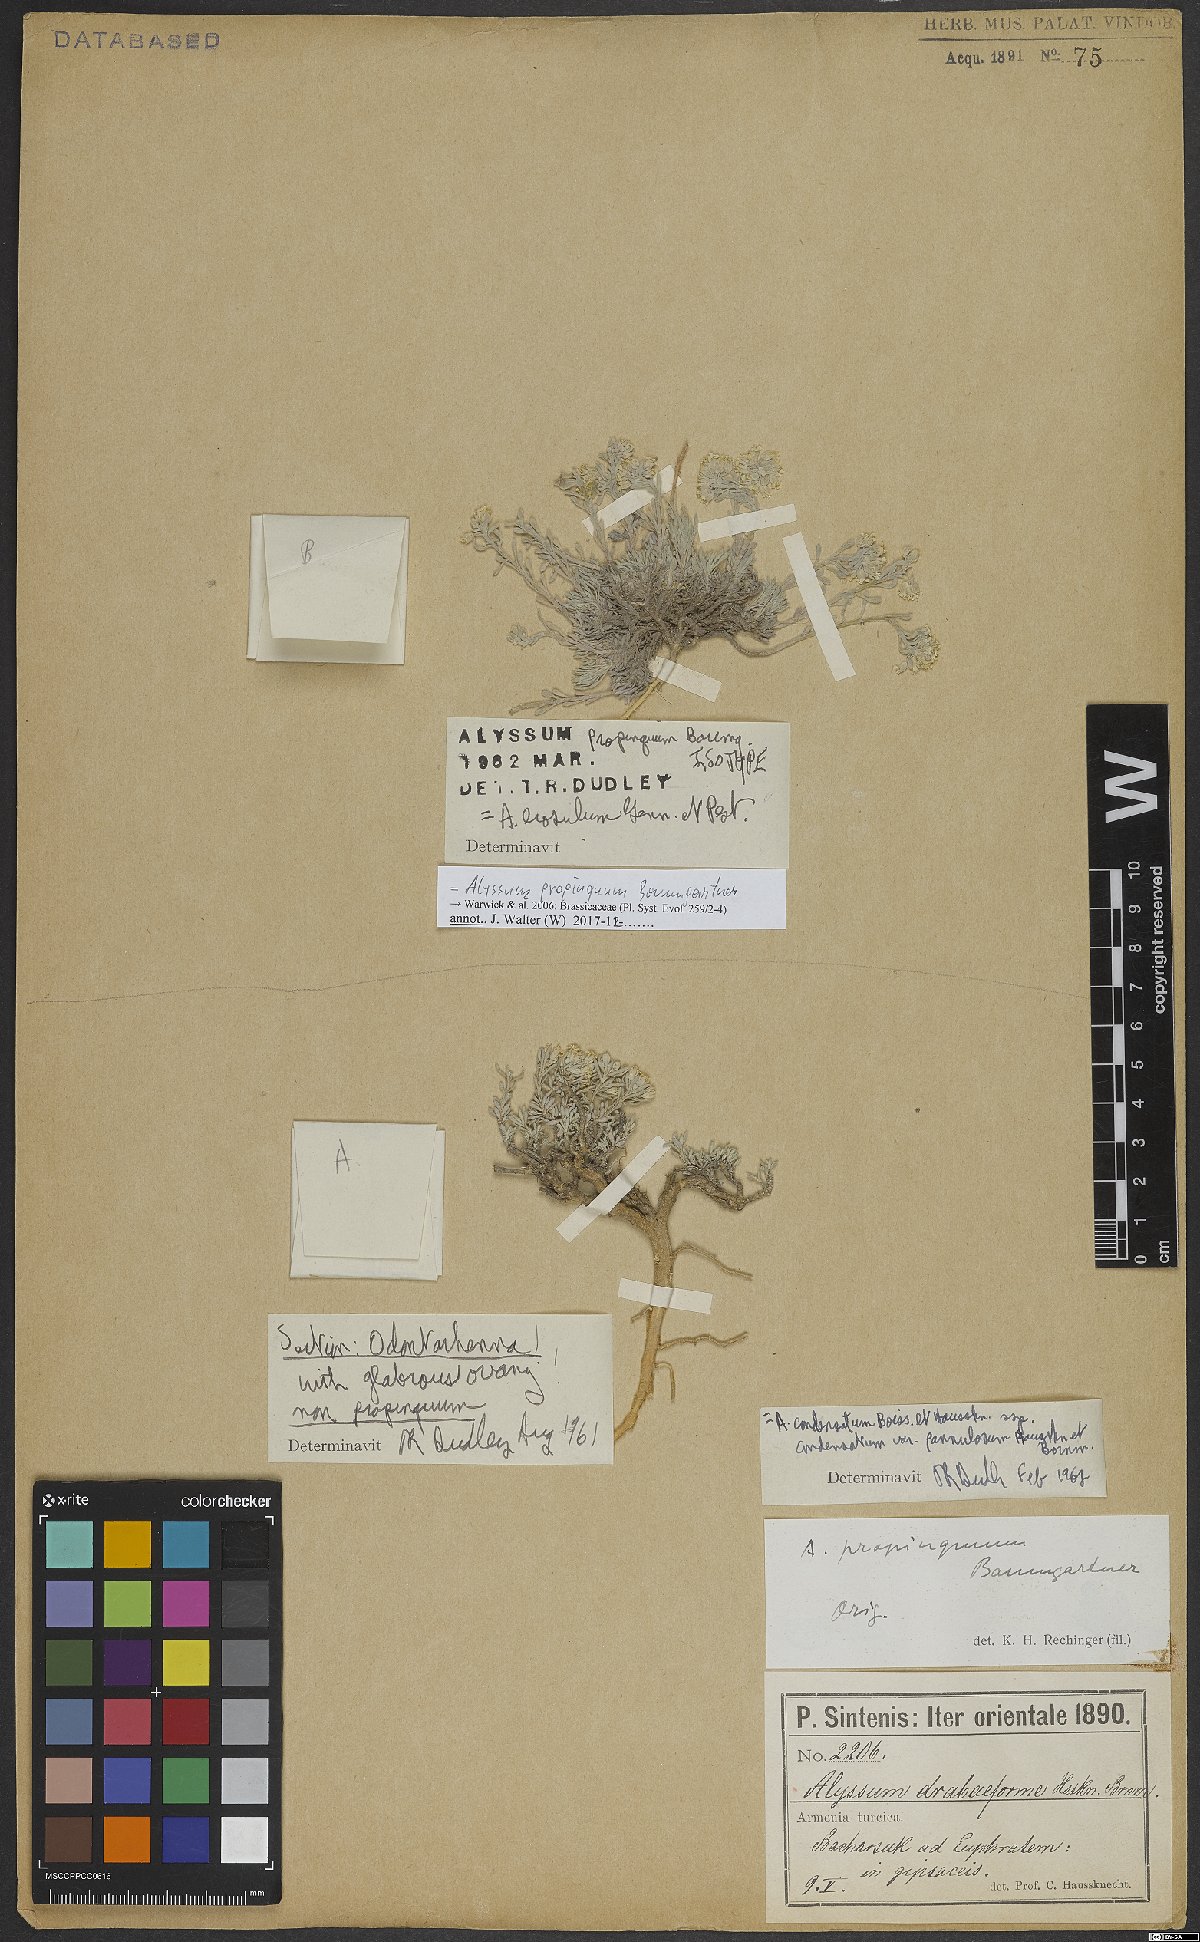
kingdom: Plantae
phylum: Tracheophyta
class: Magnoliopsida
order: Brassicales
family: Brassicaceae
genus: Alyssum
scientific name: Alyssum propinquum
